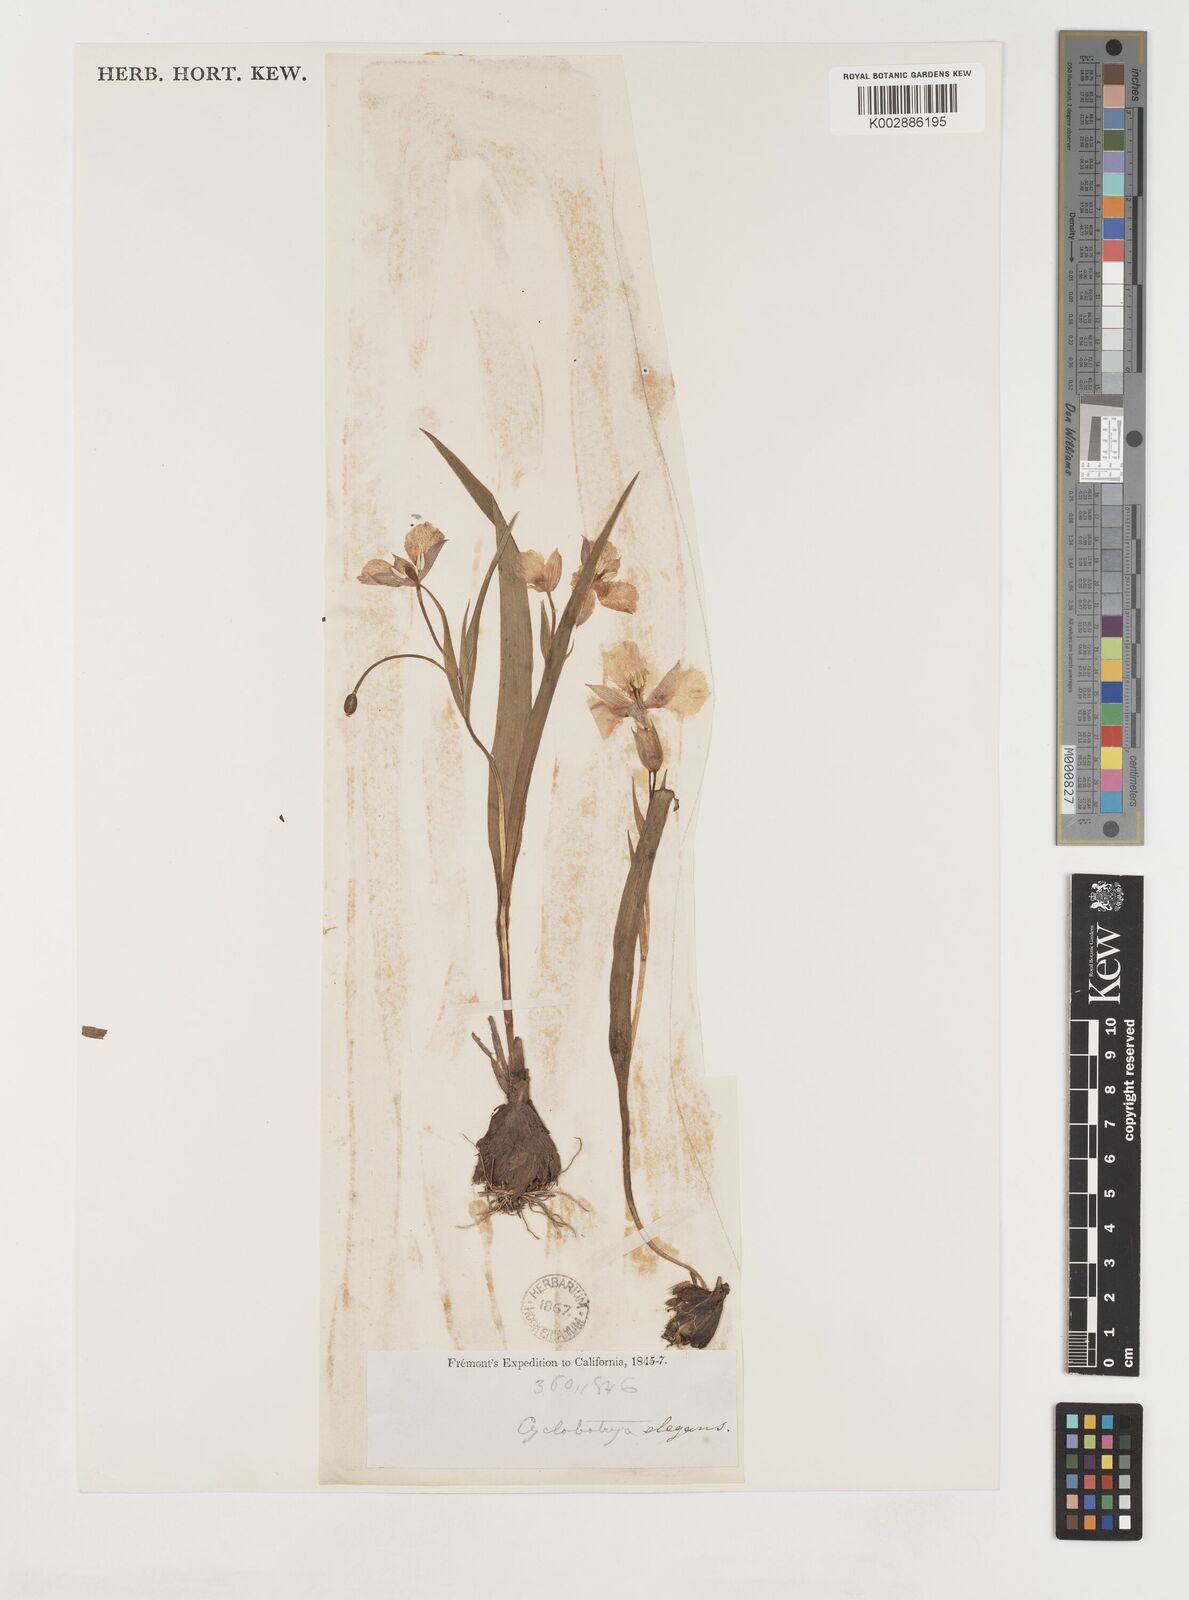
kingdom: Plantae
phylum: Tracheophyta
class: Liliopsida
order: Liliales
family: Liliaceae
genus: Calochortus
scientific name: Calochortus elegans
